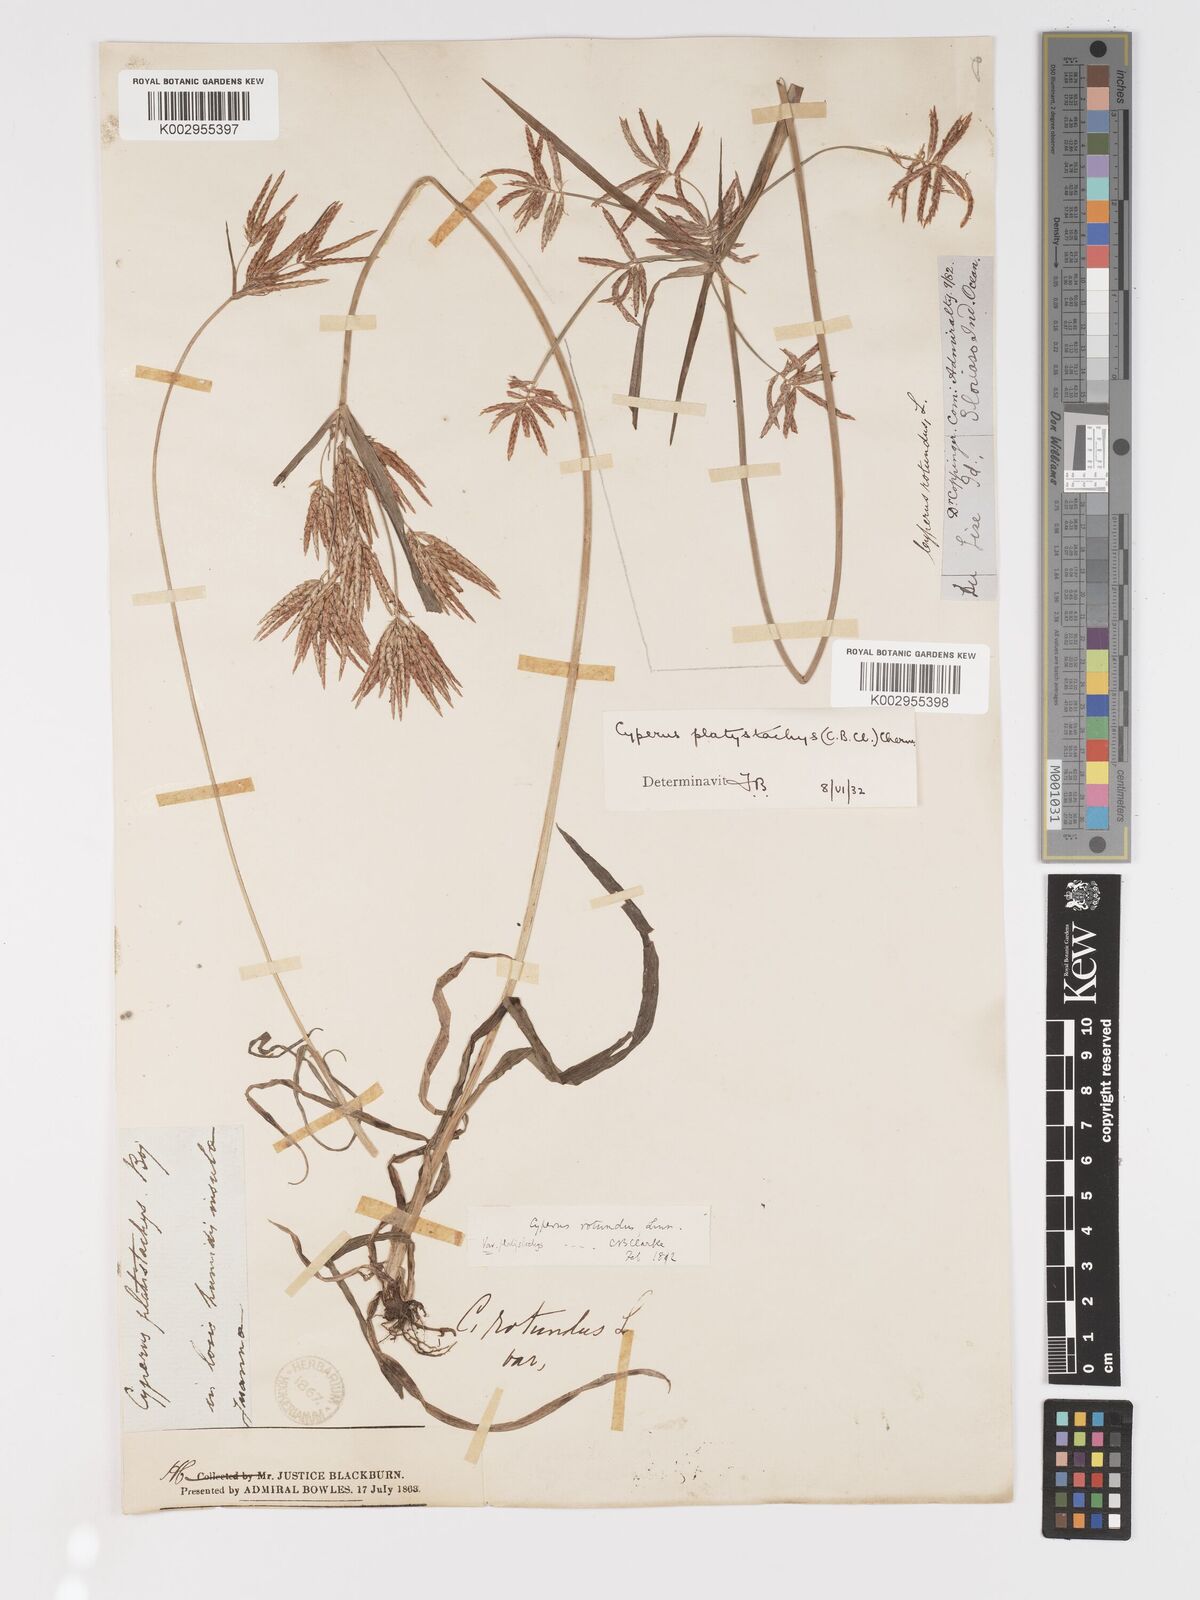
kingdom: Plantae
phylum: Tracheophyta
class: Liliopsida
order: Poales
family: Cyperaceae
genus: Cyperus
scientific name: Cyperus tuberosus
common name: Nut grass
